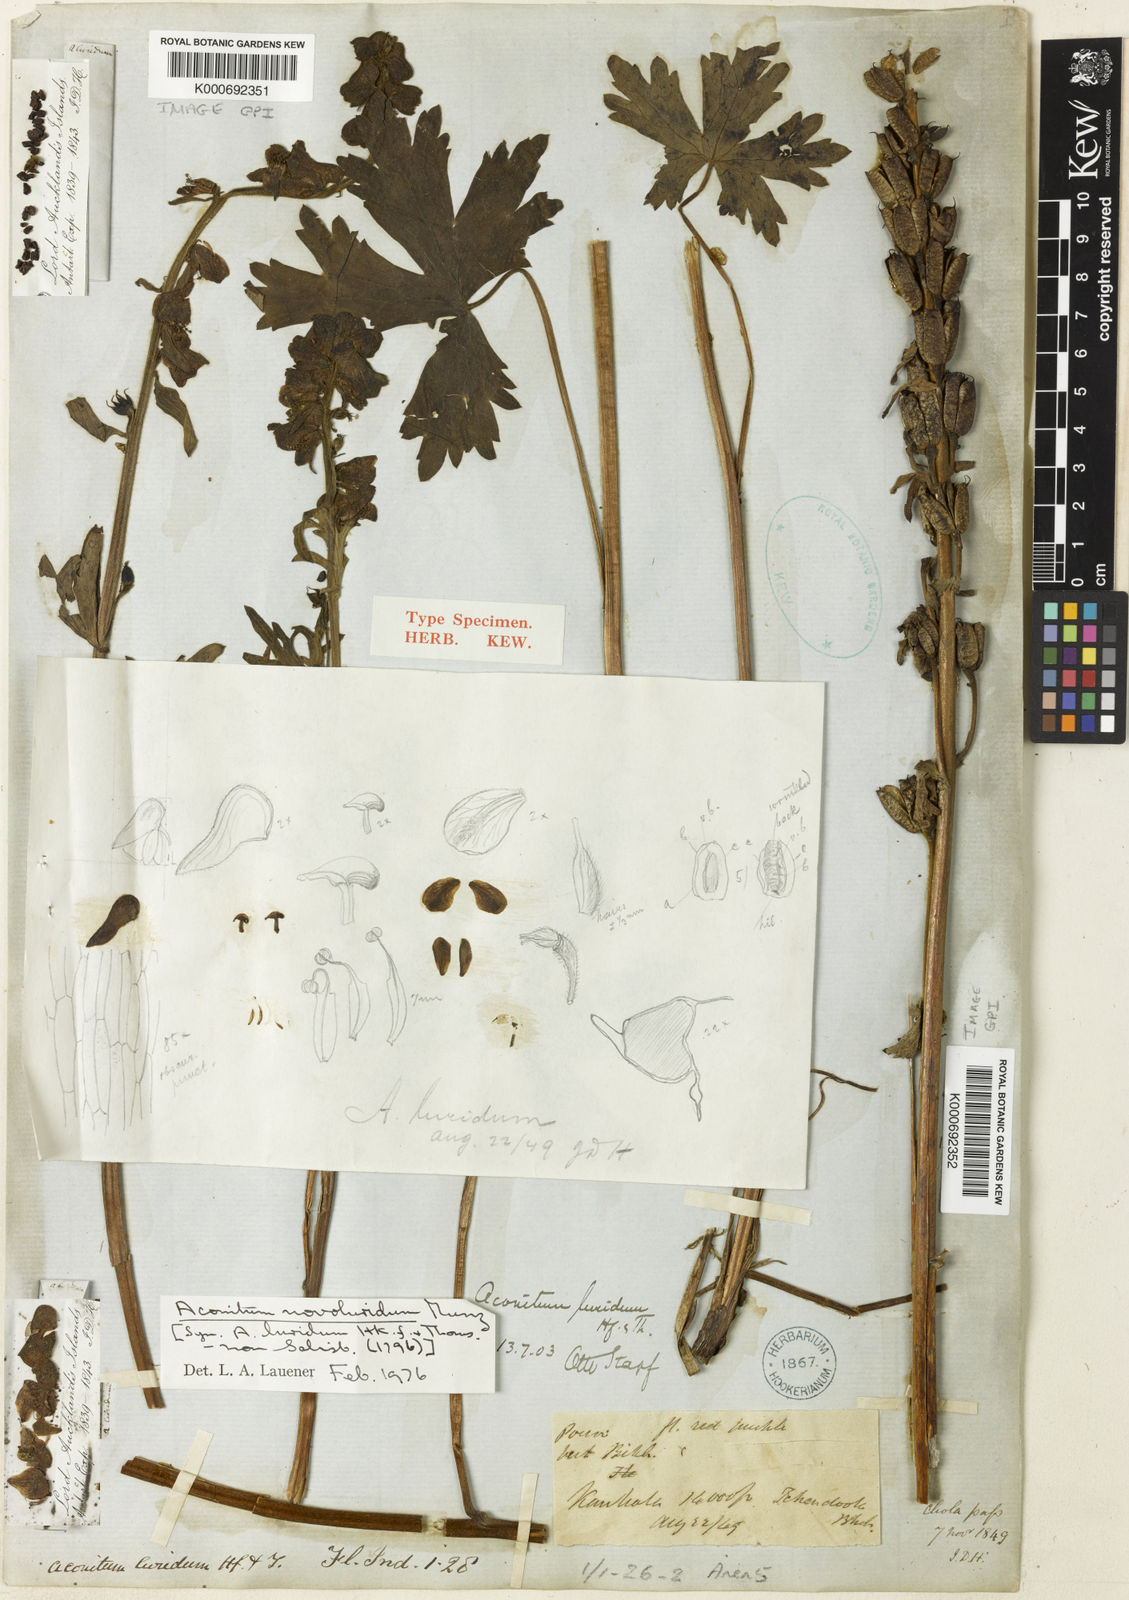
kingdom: Plantae
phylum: Tracheophyta
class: Magnoliopsida
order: Ranunculales
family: Ranunculaceae
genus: Aconitum
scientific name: Aconitum novoluridum
